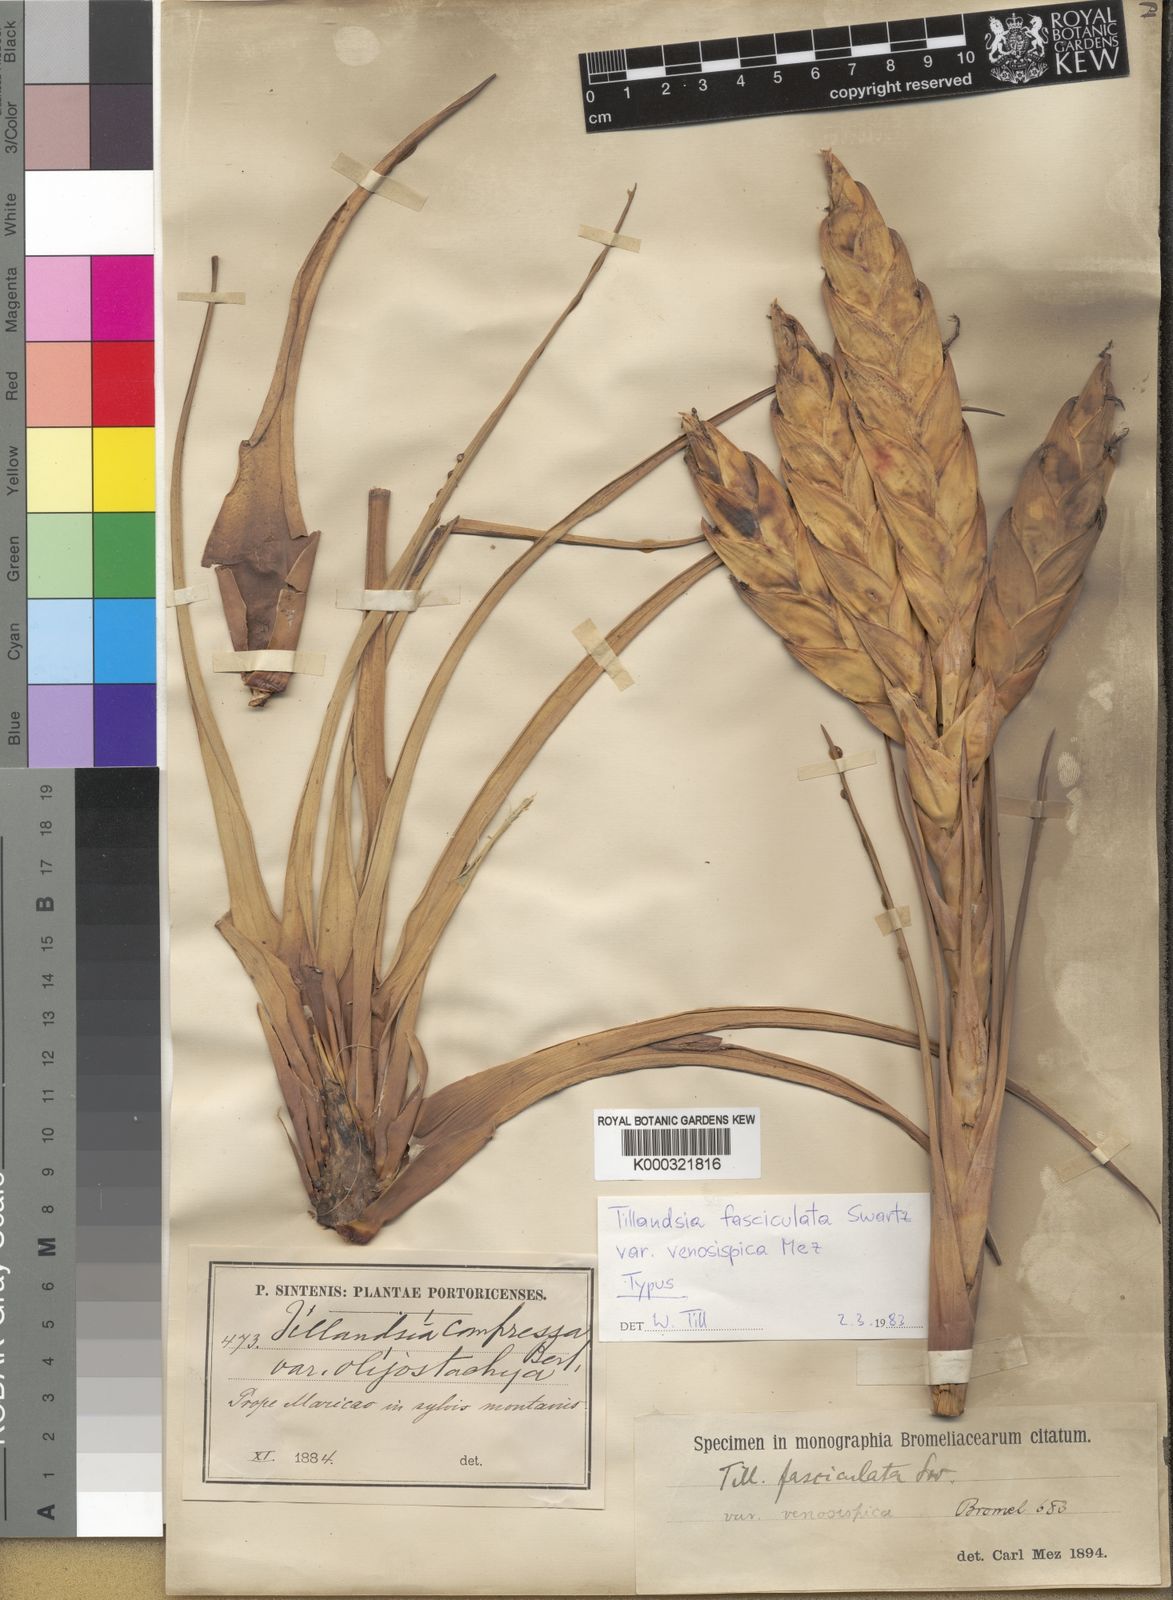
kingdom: Plantae
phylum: Tracheophyta
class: Liliopsida
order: Poales
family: Bromeliaceae
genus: Tillandsia
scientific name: Tillandsia compressa
